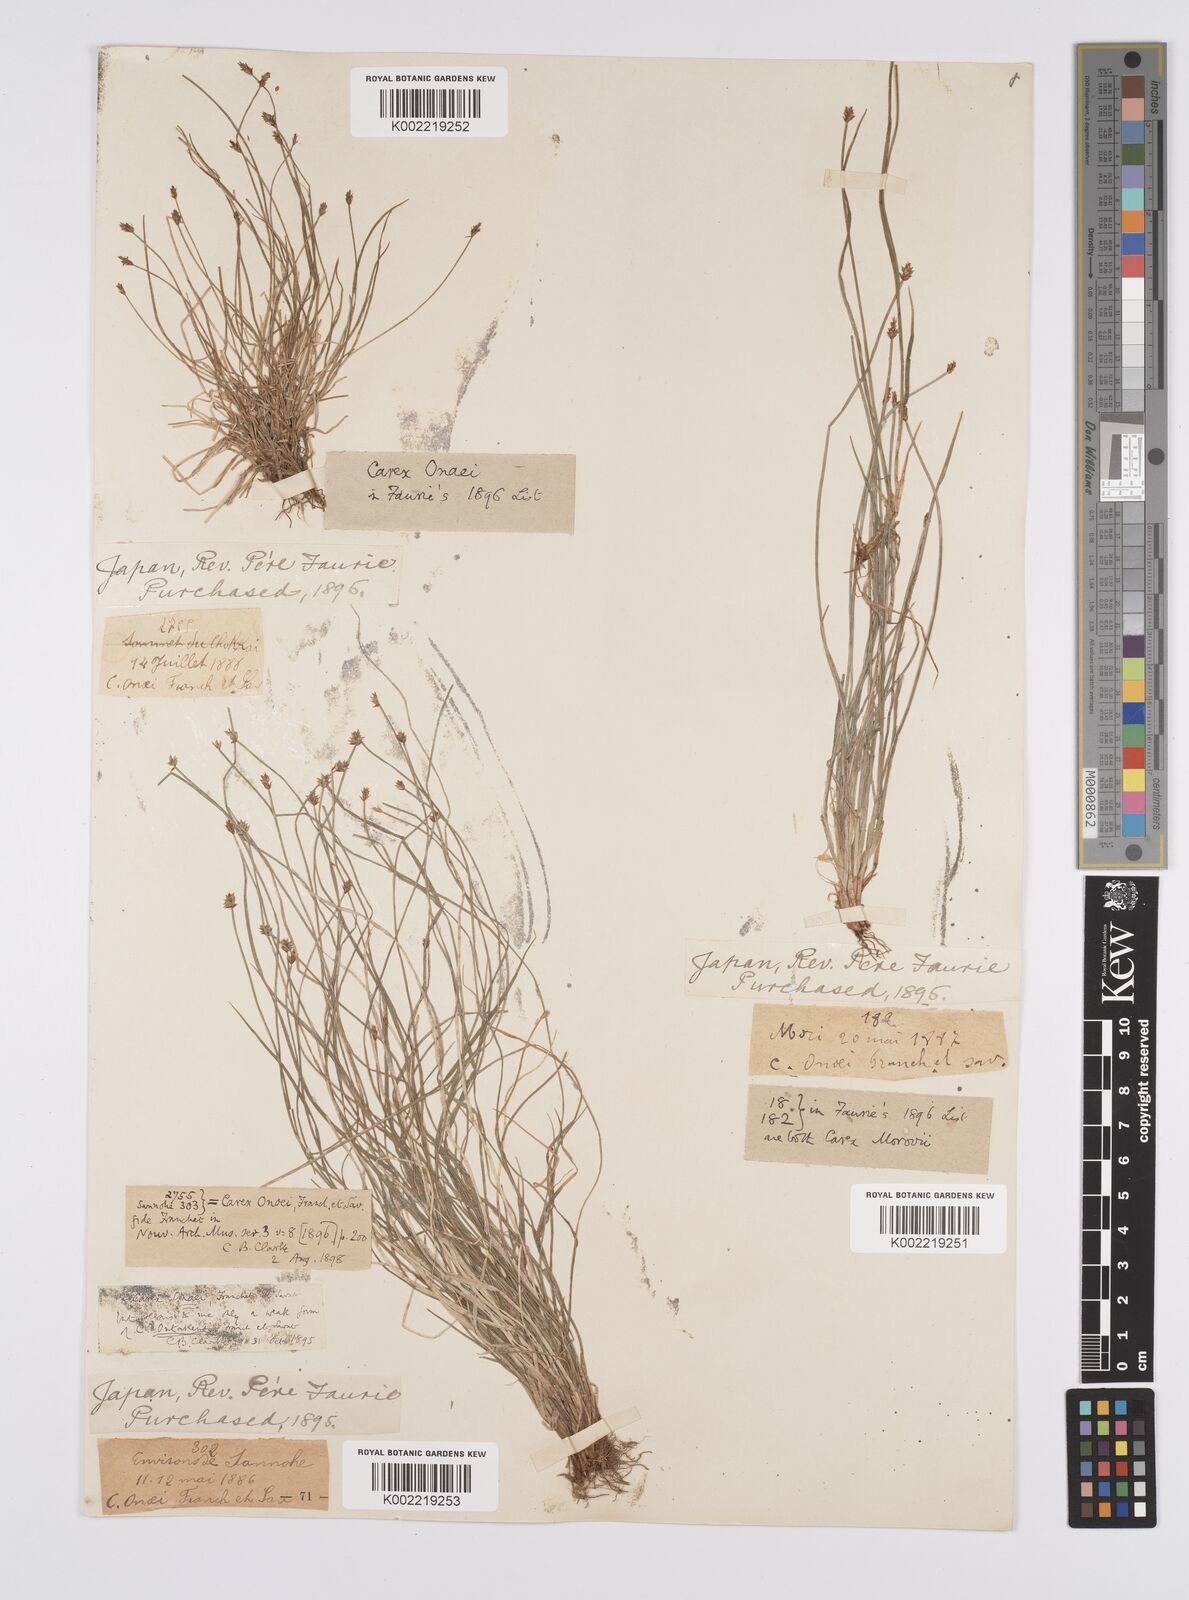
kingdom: Plantae
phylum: Tracheophyta
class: Liliopsida
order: Poales
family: Cyperaceae
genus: Carex
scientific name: Carex onoei
